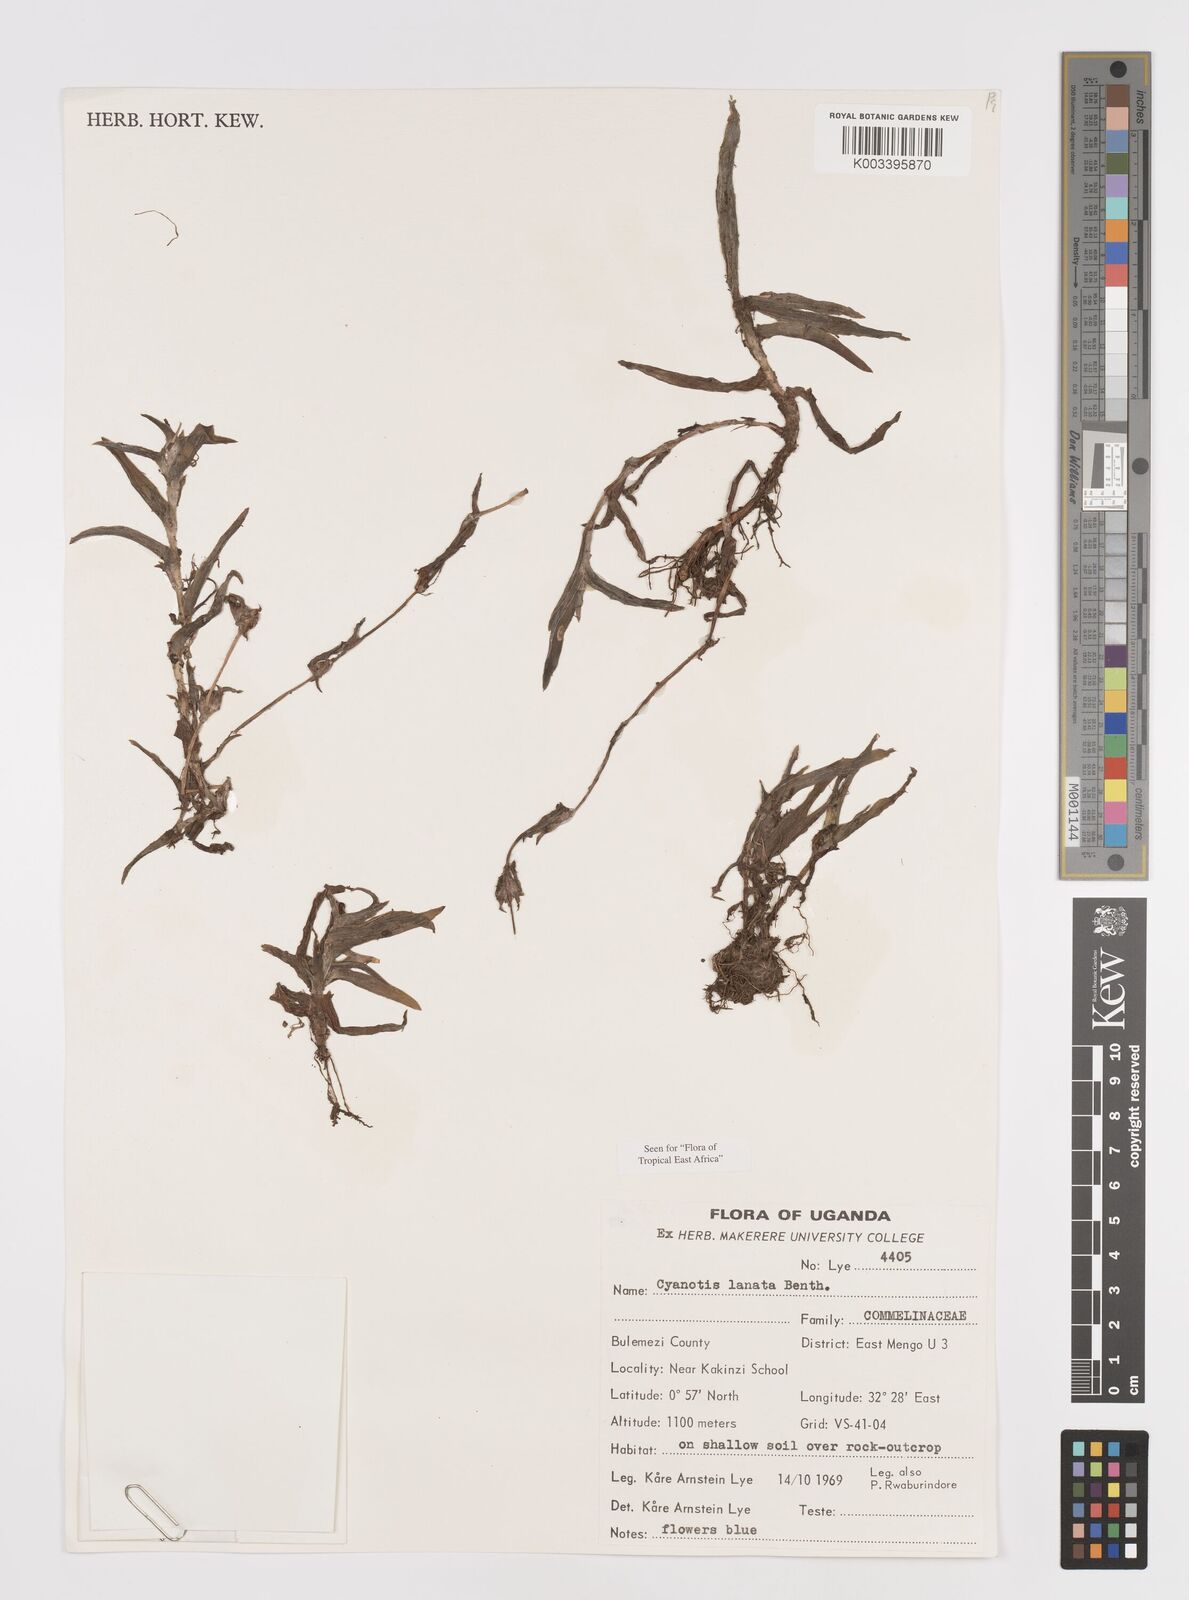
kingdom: Plantae
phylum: Tracheophyta
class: Liliopsida
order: Commelinales
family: Commelinaceae
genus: Cyanotis
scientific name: Cyanotis lanata
